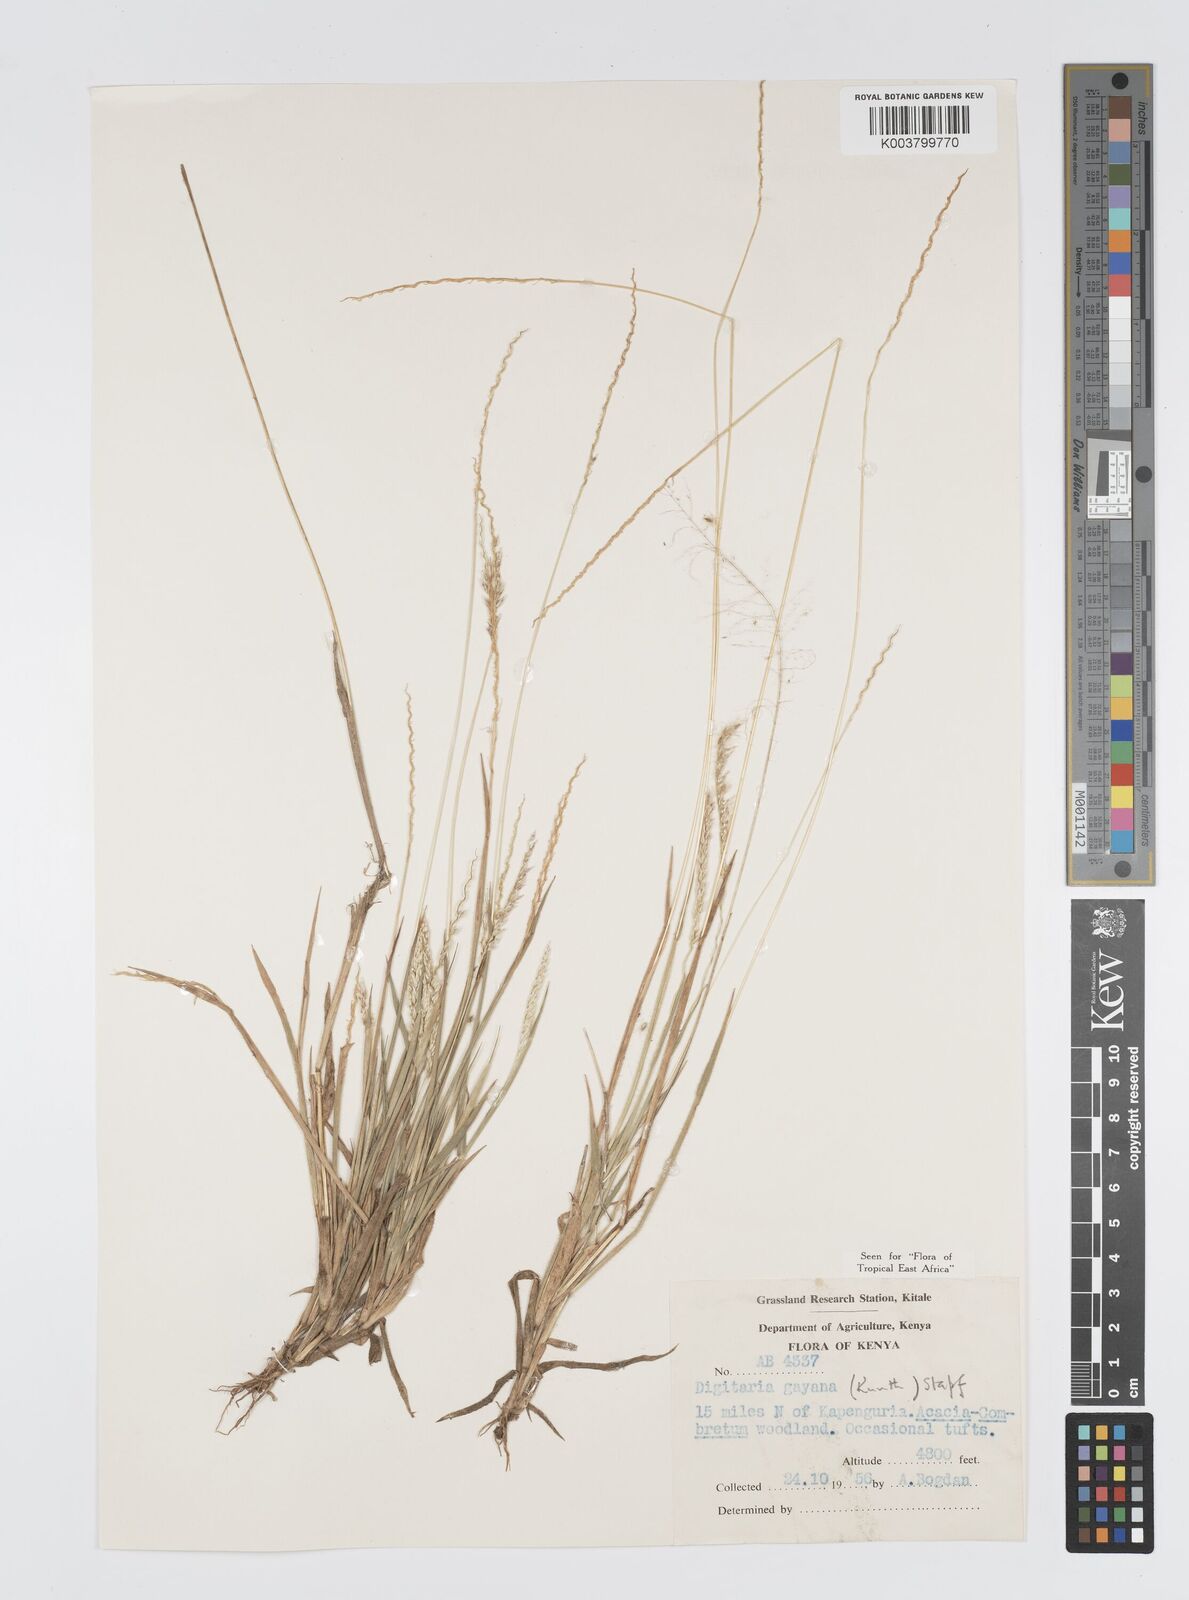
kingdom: Plantae
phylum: Tracheophyta
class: Liliopsida
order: Poales
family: Poaceae
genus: Digitaria
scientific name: Digitaria gayana
